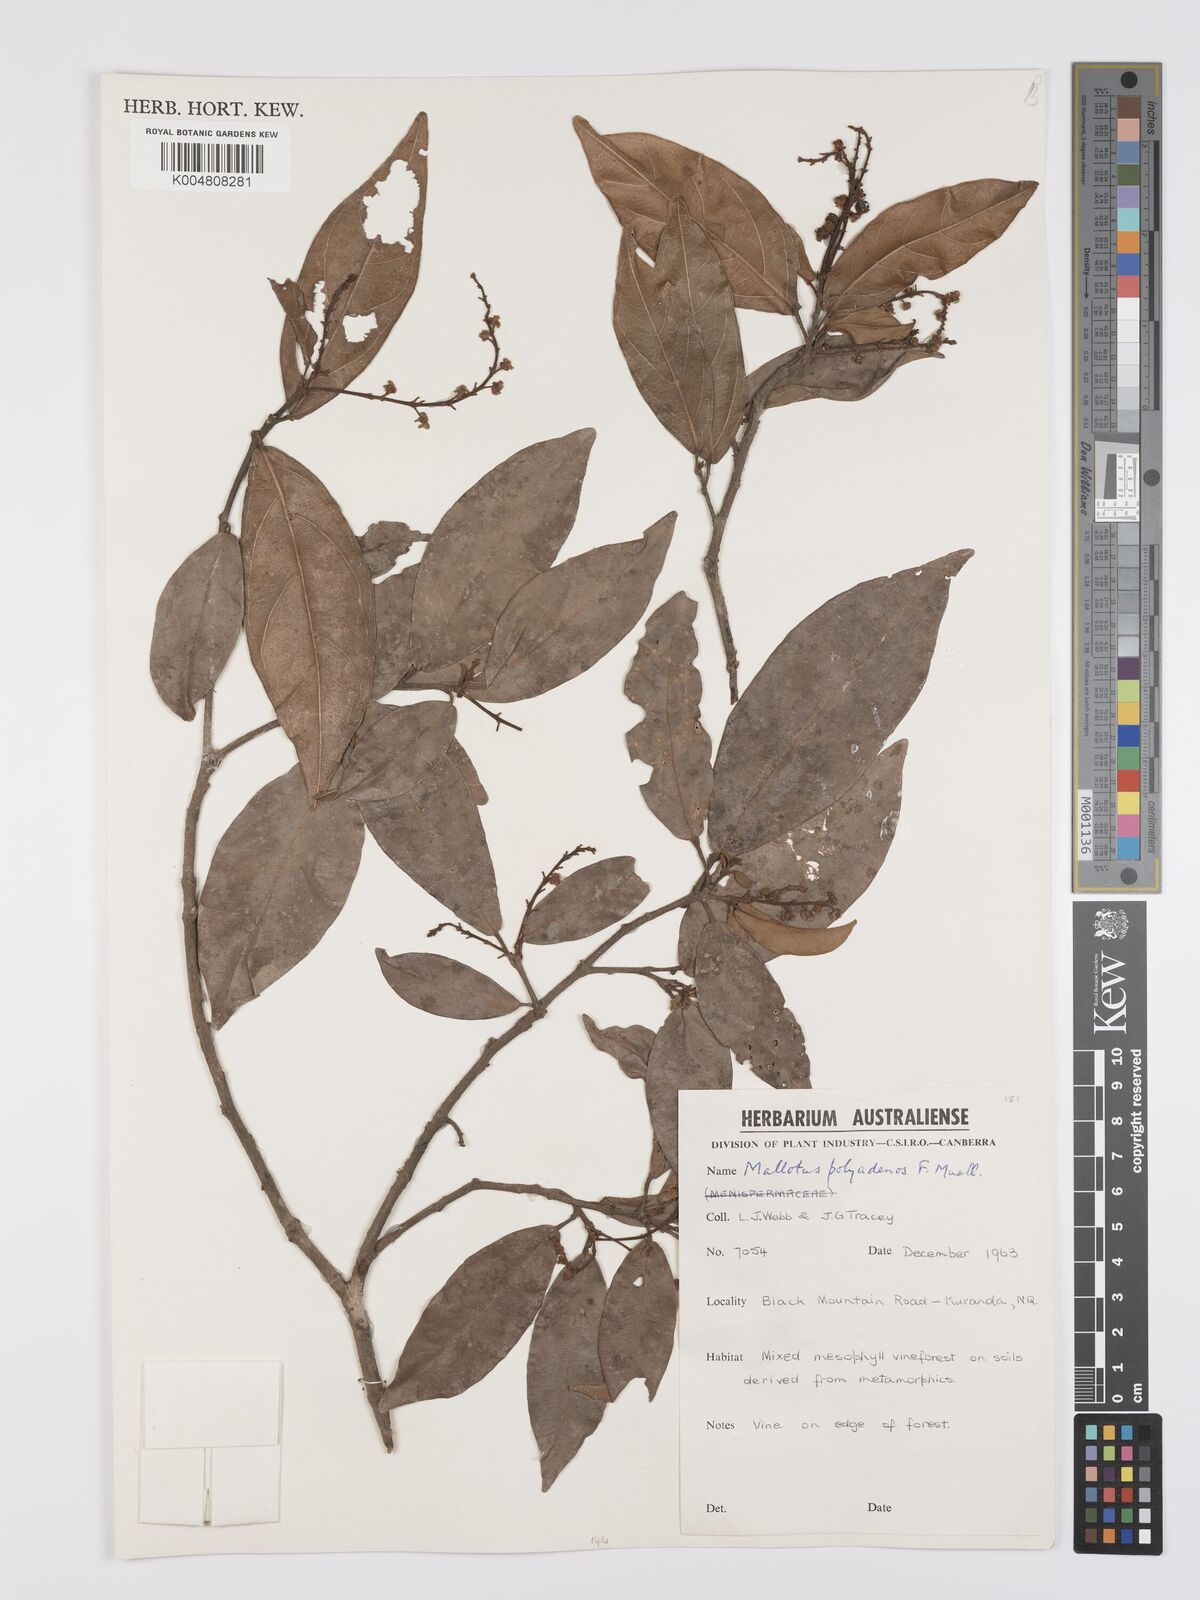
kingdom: Plantae
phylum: Tracheophyta
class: Magnoliopsida
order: Malpighiales
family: Euphorbiaceae
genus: Mallotus
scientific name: Mallotus polyadenos
